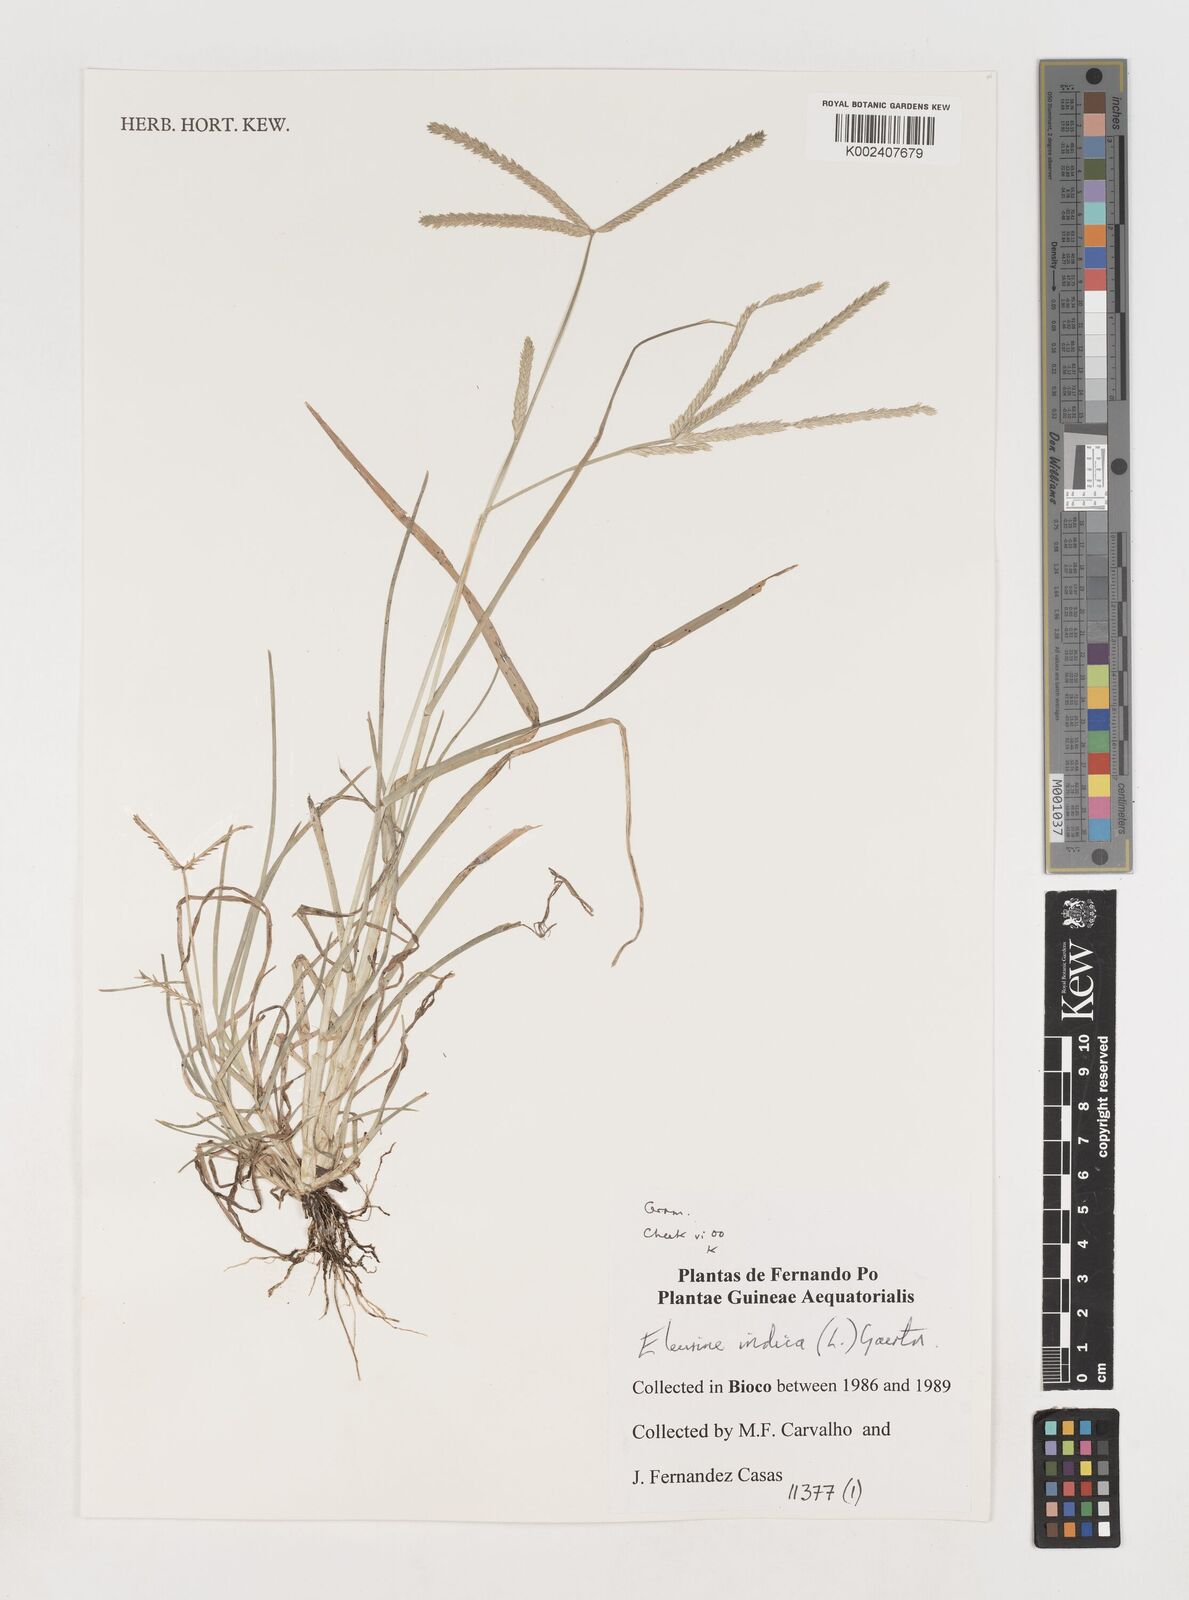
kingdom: Plantae
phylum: Tracheophyta
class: Liliopsida
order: Poales
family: Poaceae
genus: Eleusine
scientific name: Eleusine indica
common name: Yard-grass
